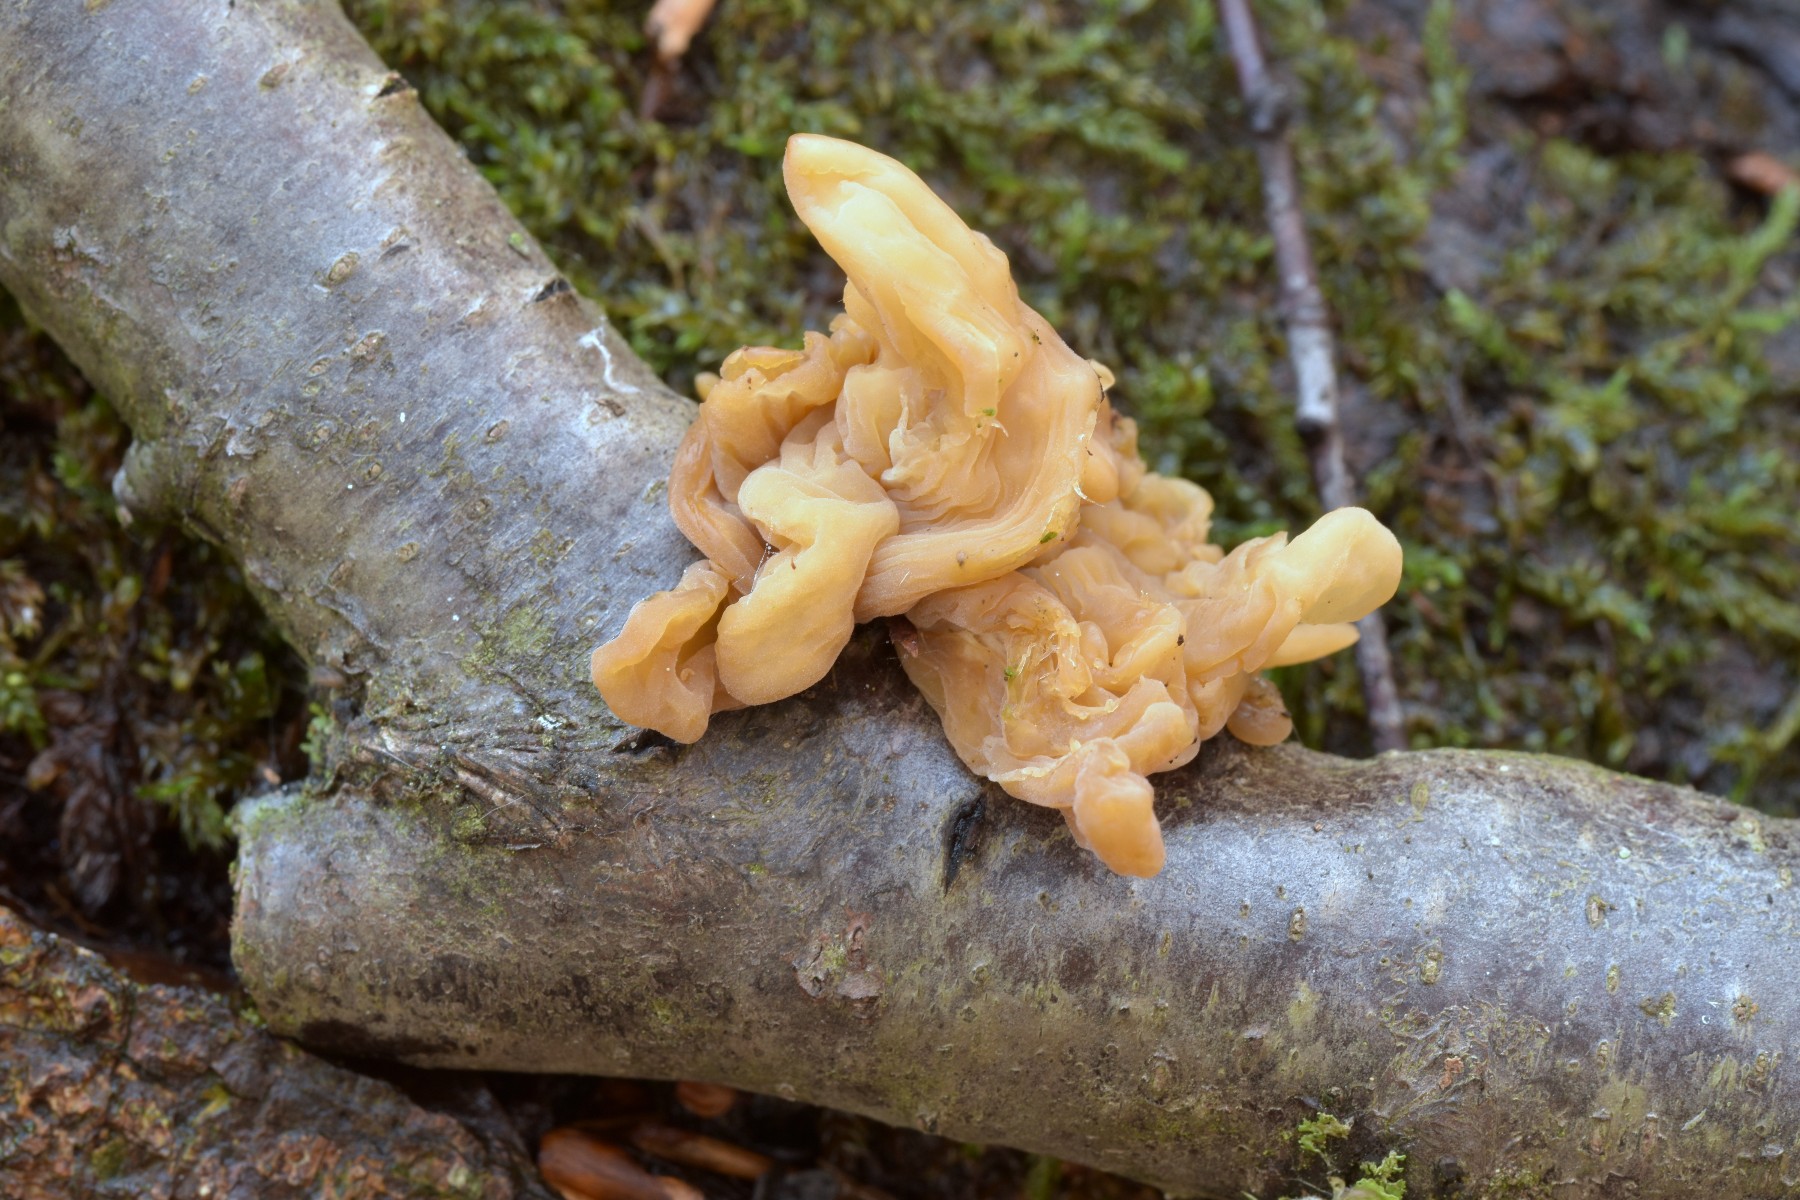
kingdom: Fungi
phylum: Basidiomycota
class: Agaricomycetes
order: Agaricales
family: Typhulaceae
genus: Typhula
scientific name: Typhula contorta
